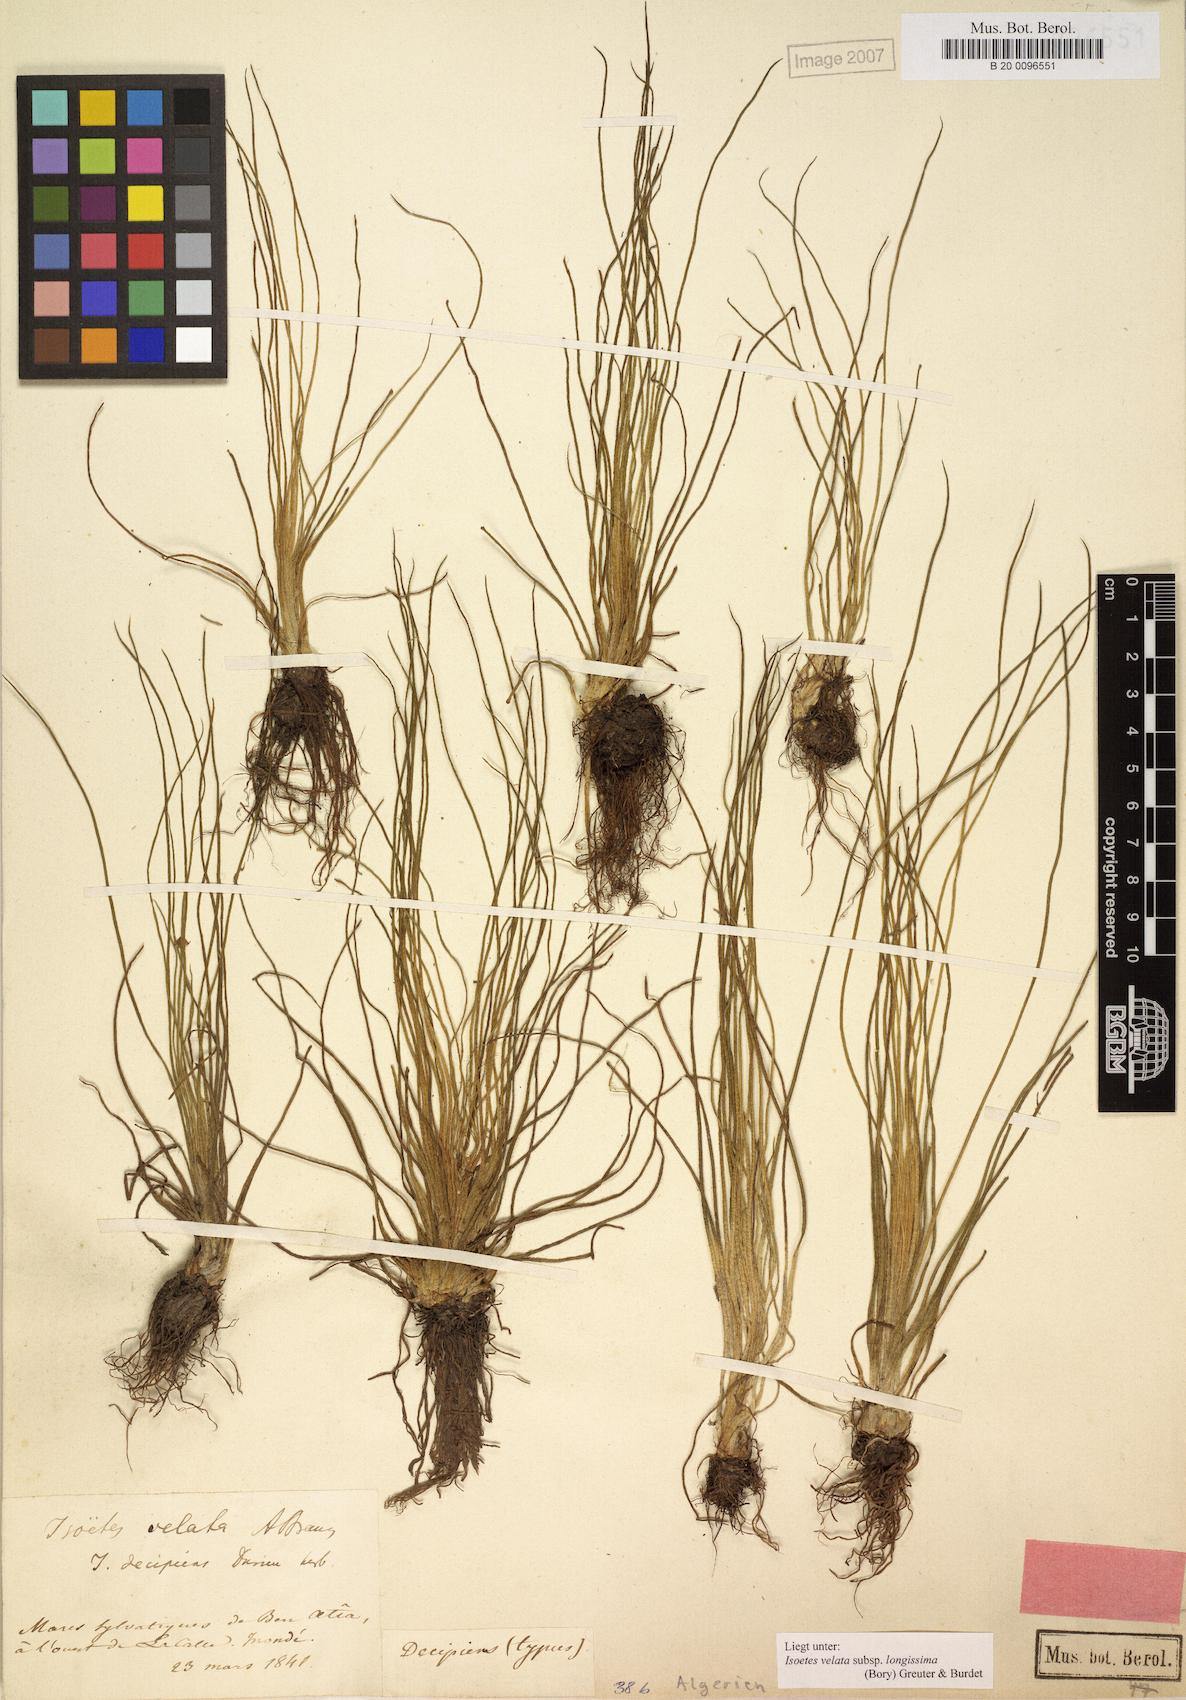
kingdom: Plantae
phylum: Tracheophyta
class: Lycopodiopsida
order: Isoetales
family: Isoetaceae
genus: Isoetes
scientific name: Isoetes longissima
